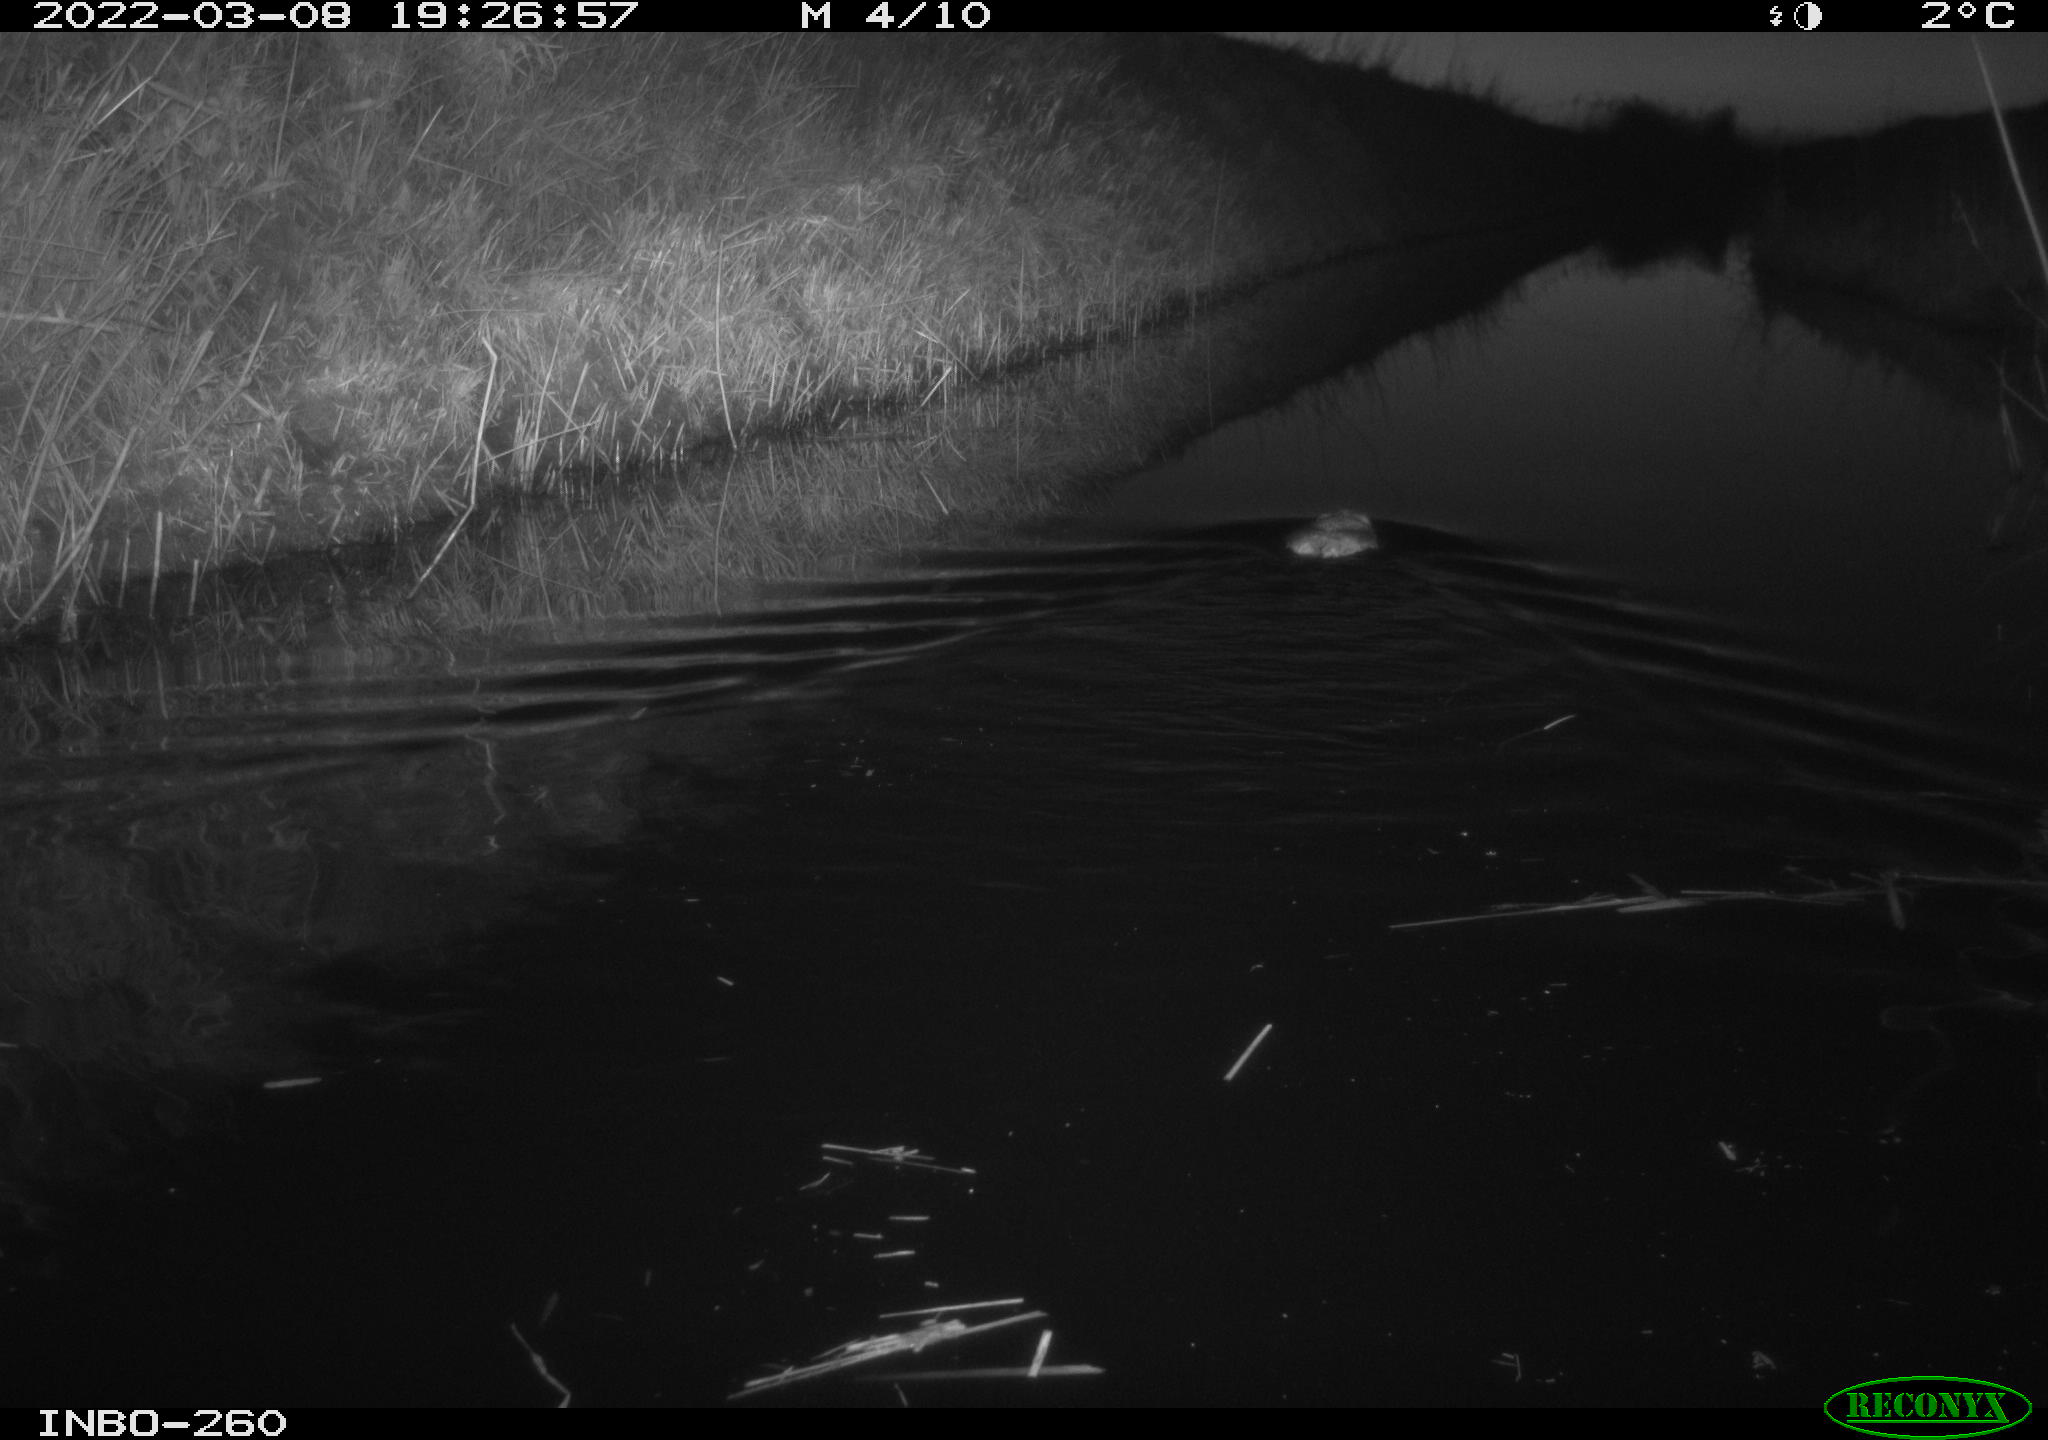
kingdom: Animalia
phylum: Chordata
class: Mammalia
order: Rodentia
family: Cricetidae
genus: Ondatra
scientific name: Ondatra zibethicus
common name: Muskrat
